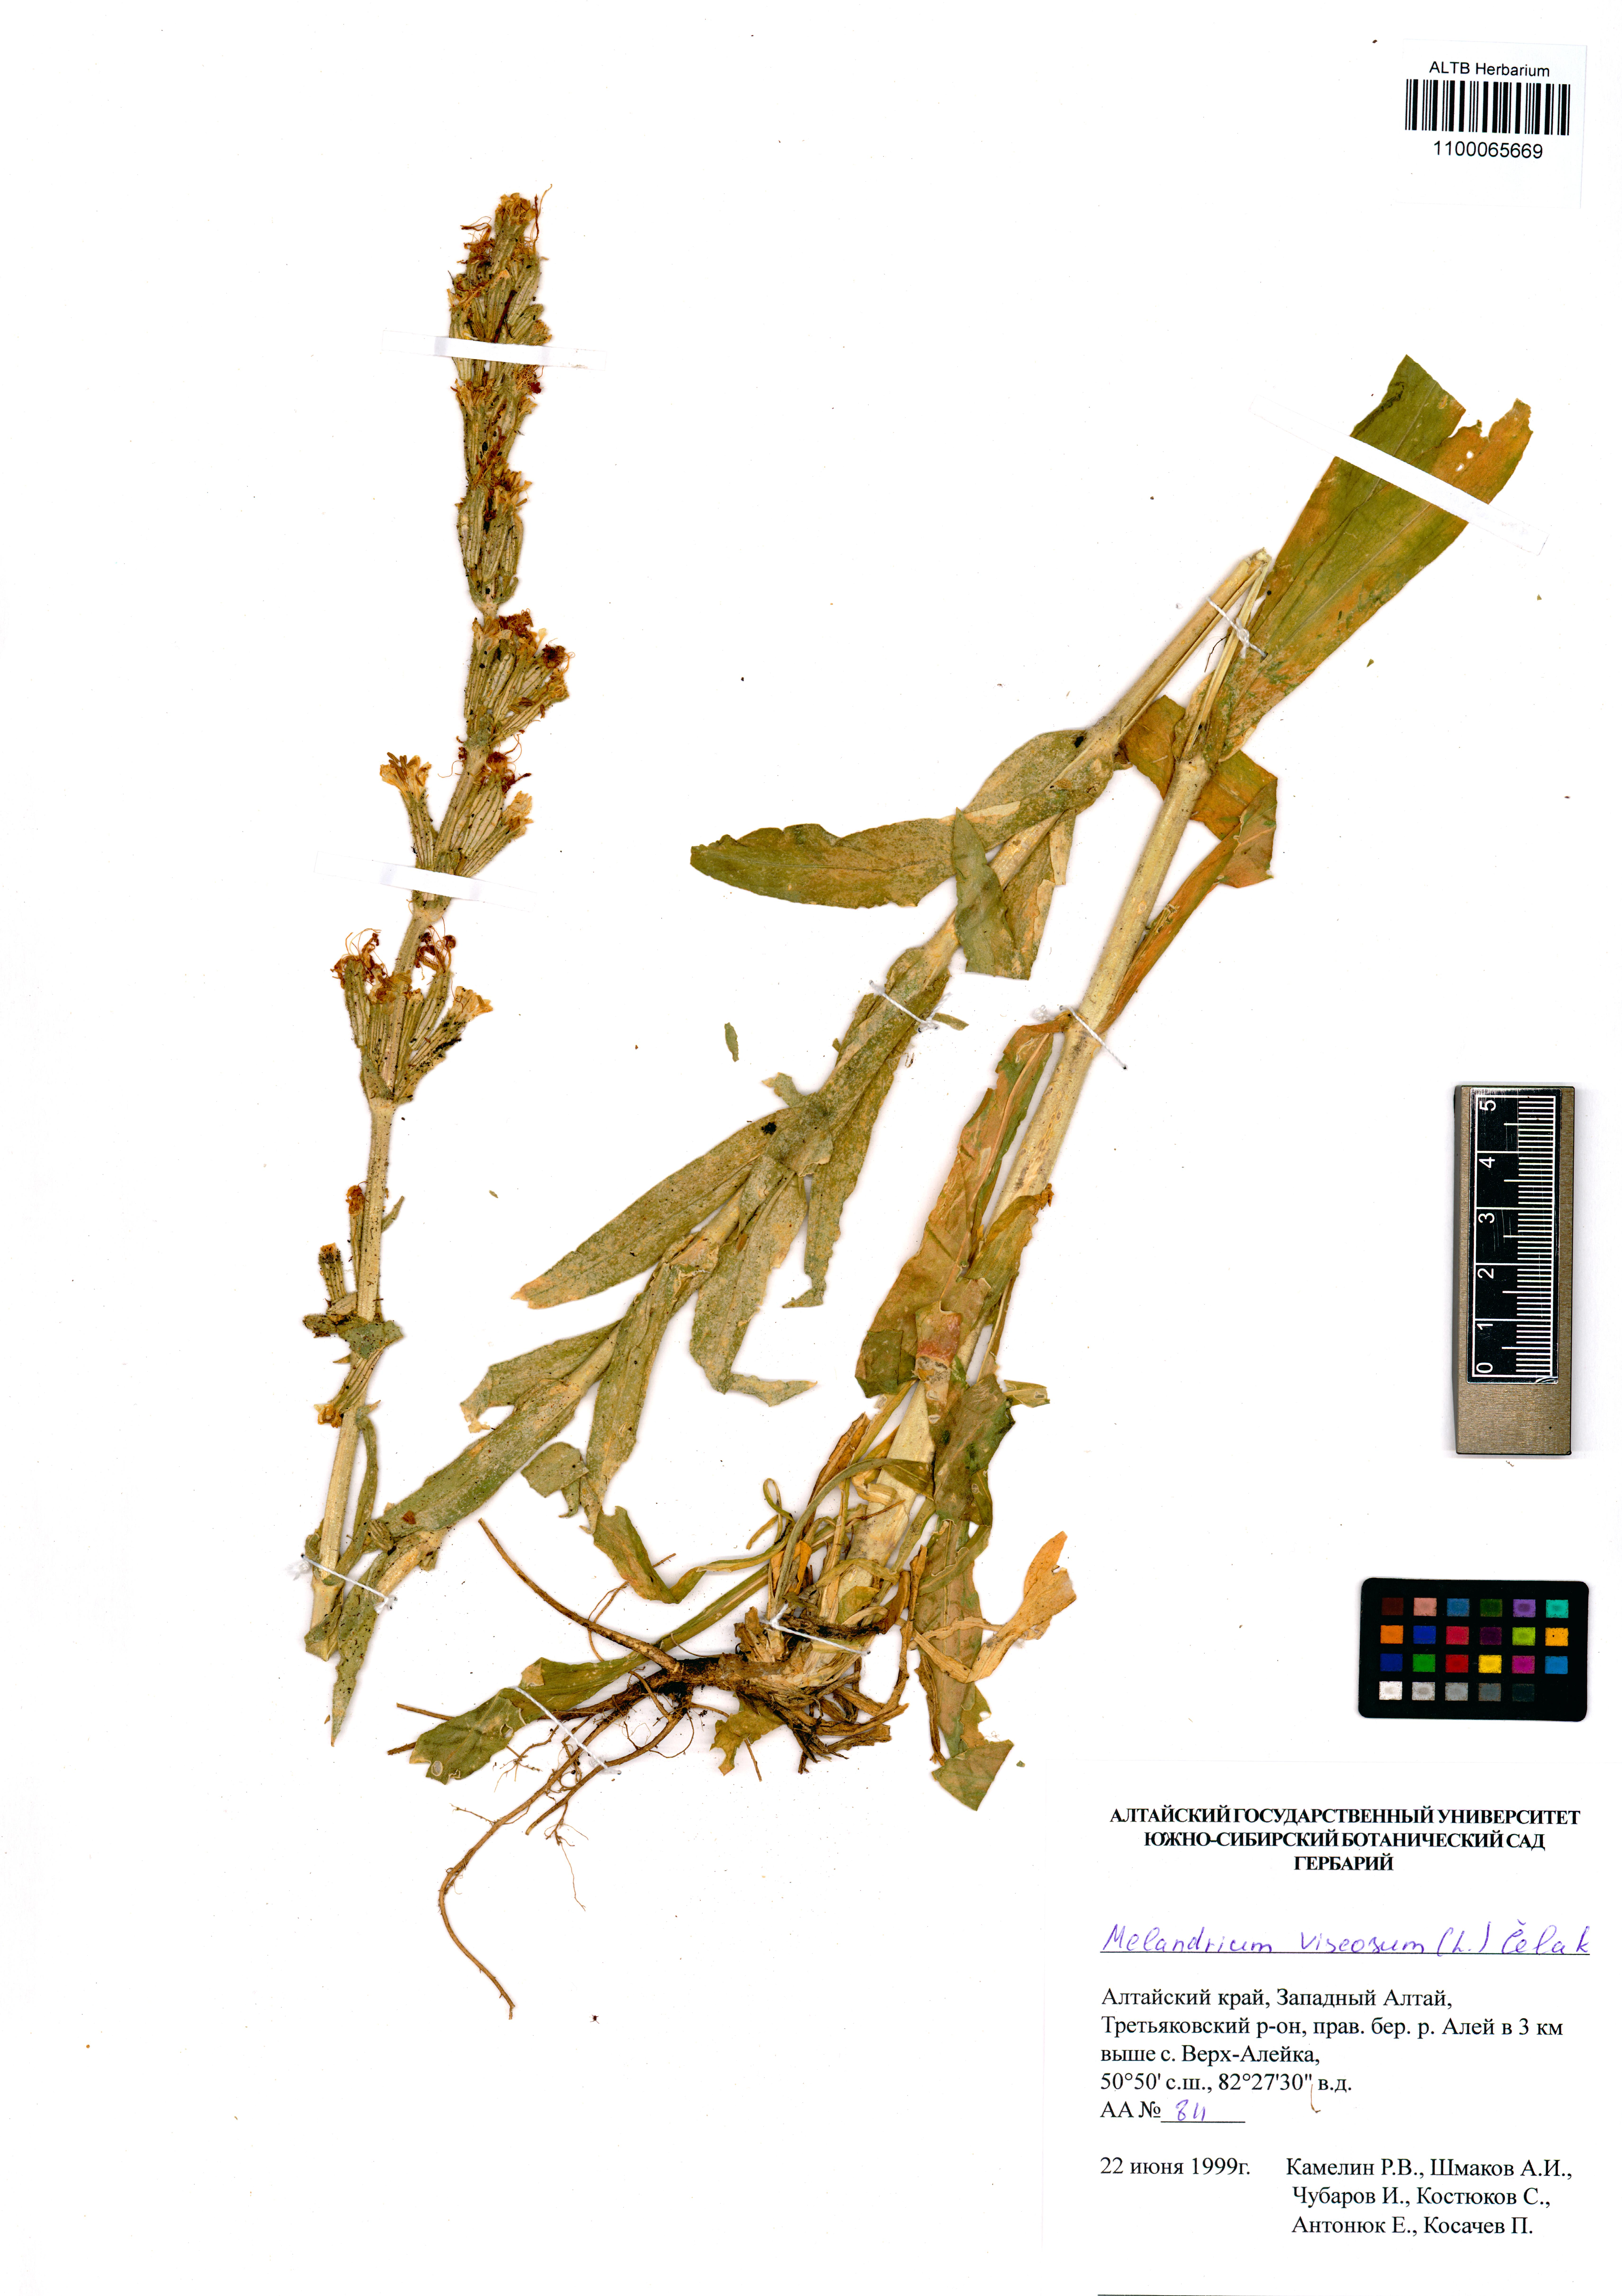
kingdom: Plantae
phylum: Tracheophyta
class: Magnoliopsida
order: Caryophyllales
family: Caryophyllaceae
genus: Silene
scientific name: Silene viscosa
